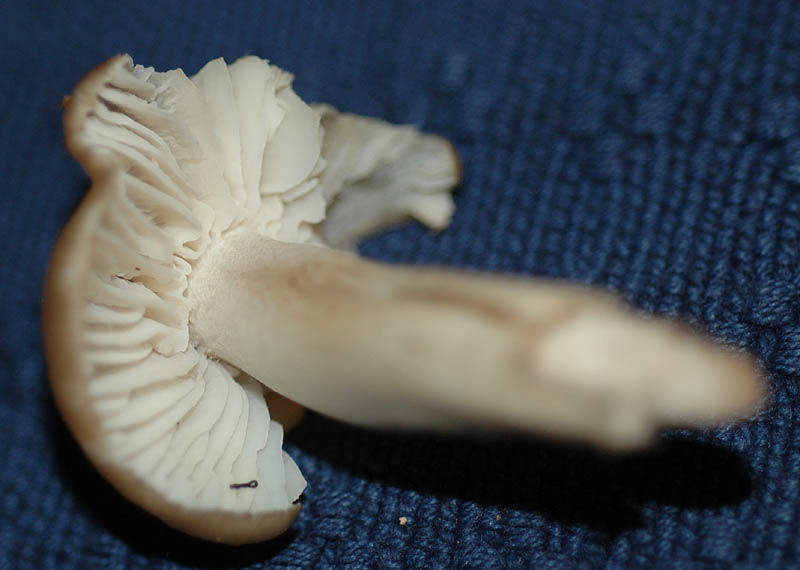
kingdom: Fungi
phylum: Basidiomycota
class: Agaricomycetes
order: Agaricales
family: Hygrophoraceae
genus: Neohygrocybe
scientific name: Neohygrocybe nitrata
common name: stinkende vokshat
